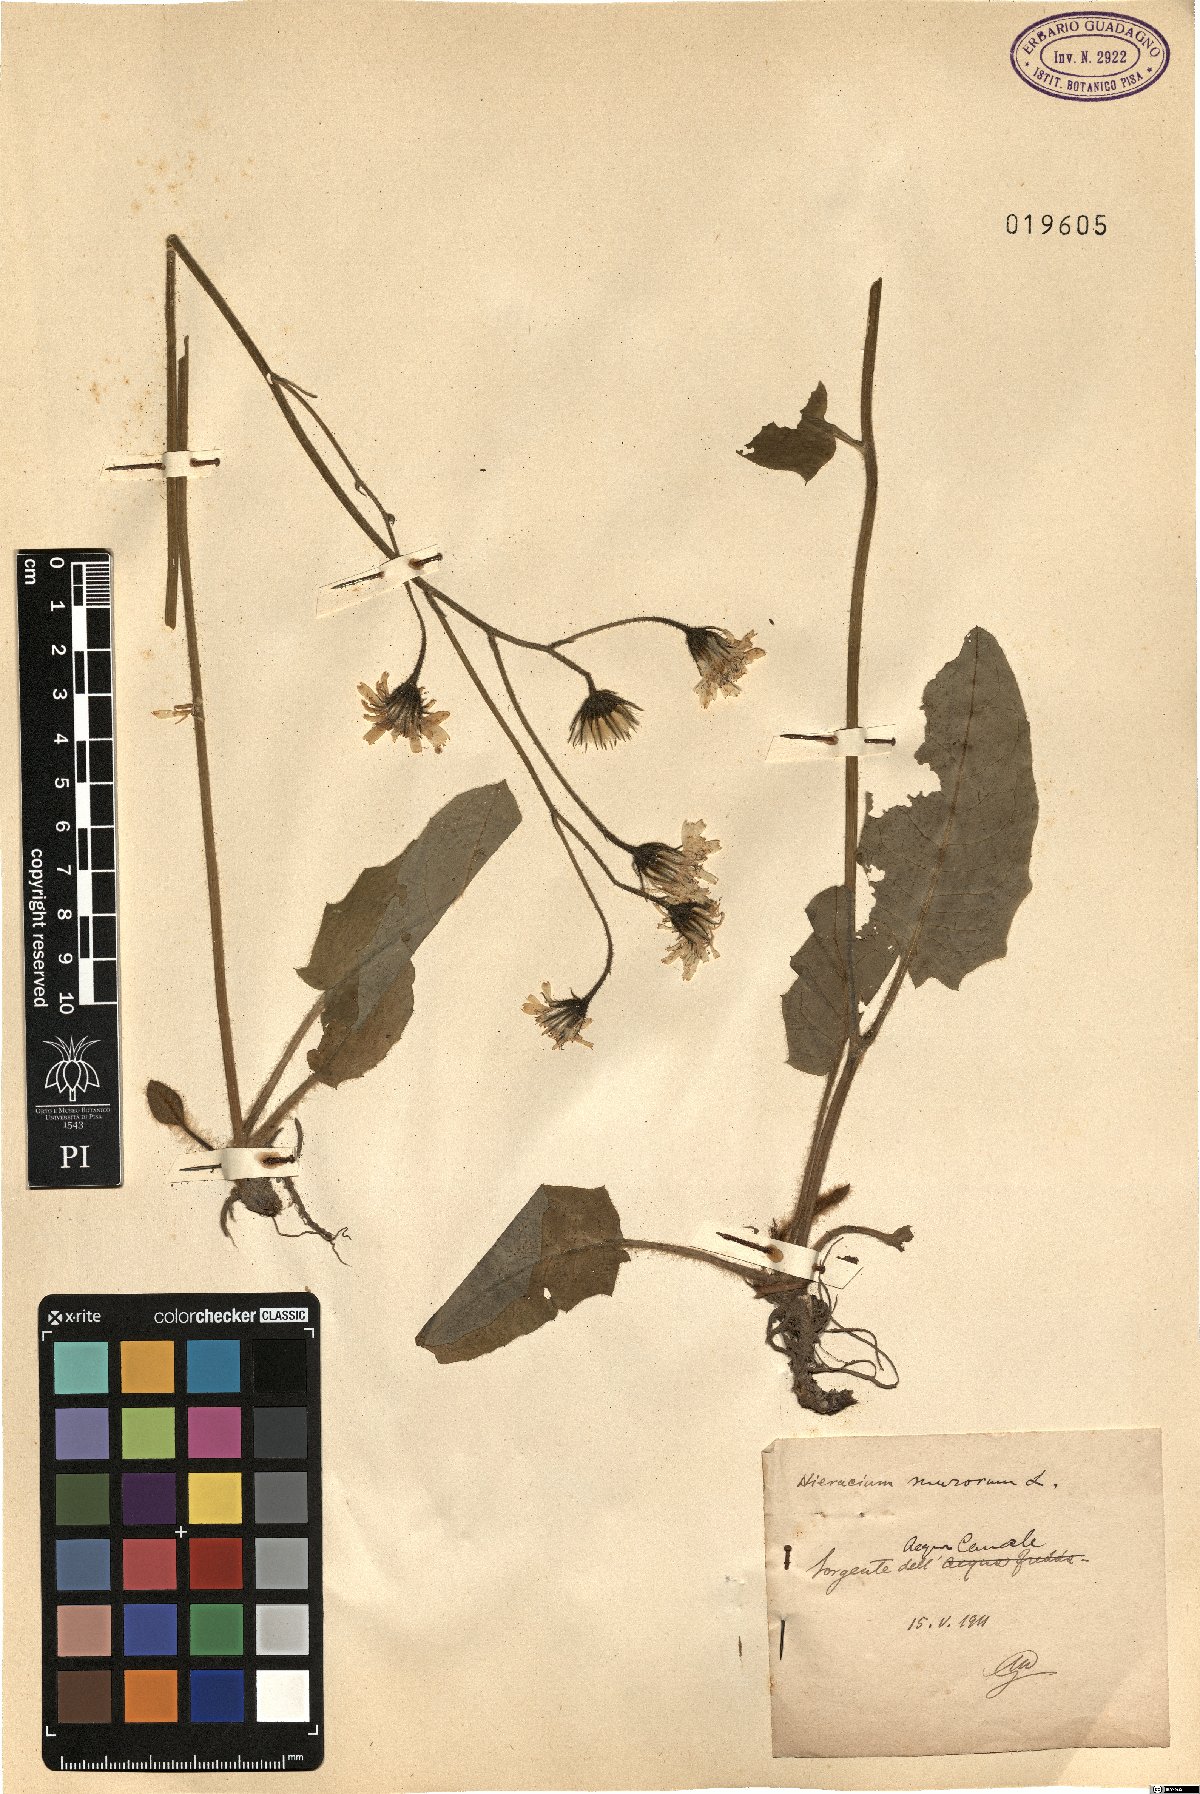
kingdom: Plantae
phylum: Tracheophyta
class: Magnoliopsida
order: Asterales
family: Asteraceae
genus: Hieracium
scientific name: Hieracium murorum
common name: Wall hawkweed
